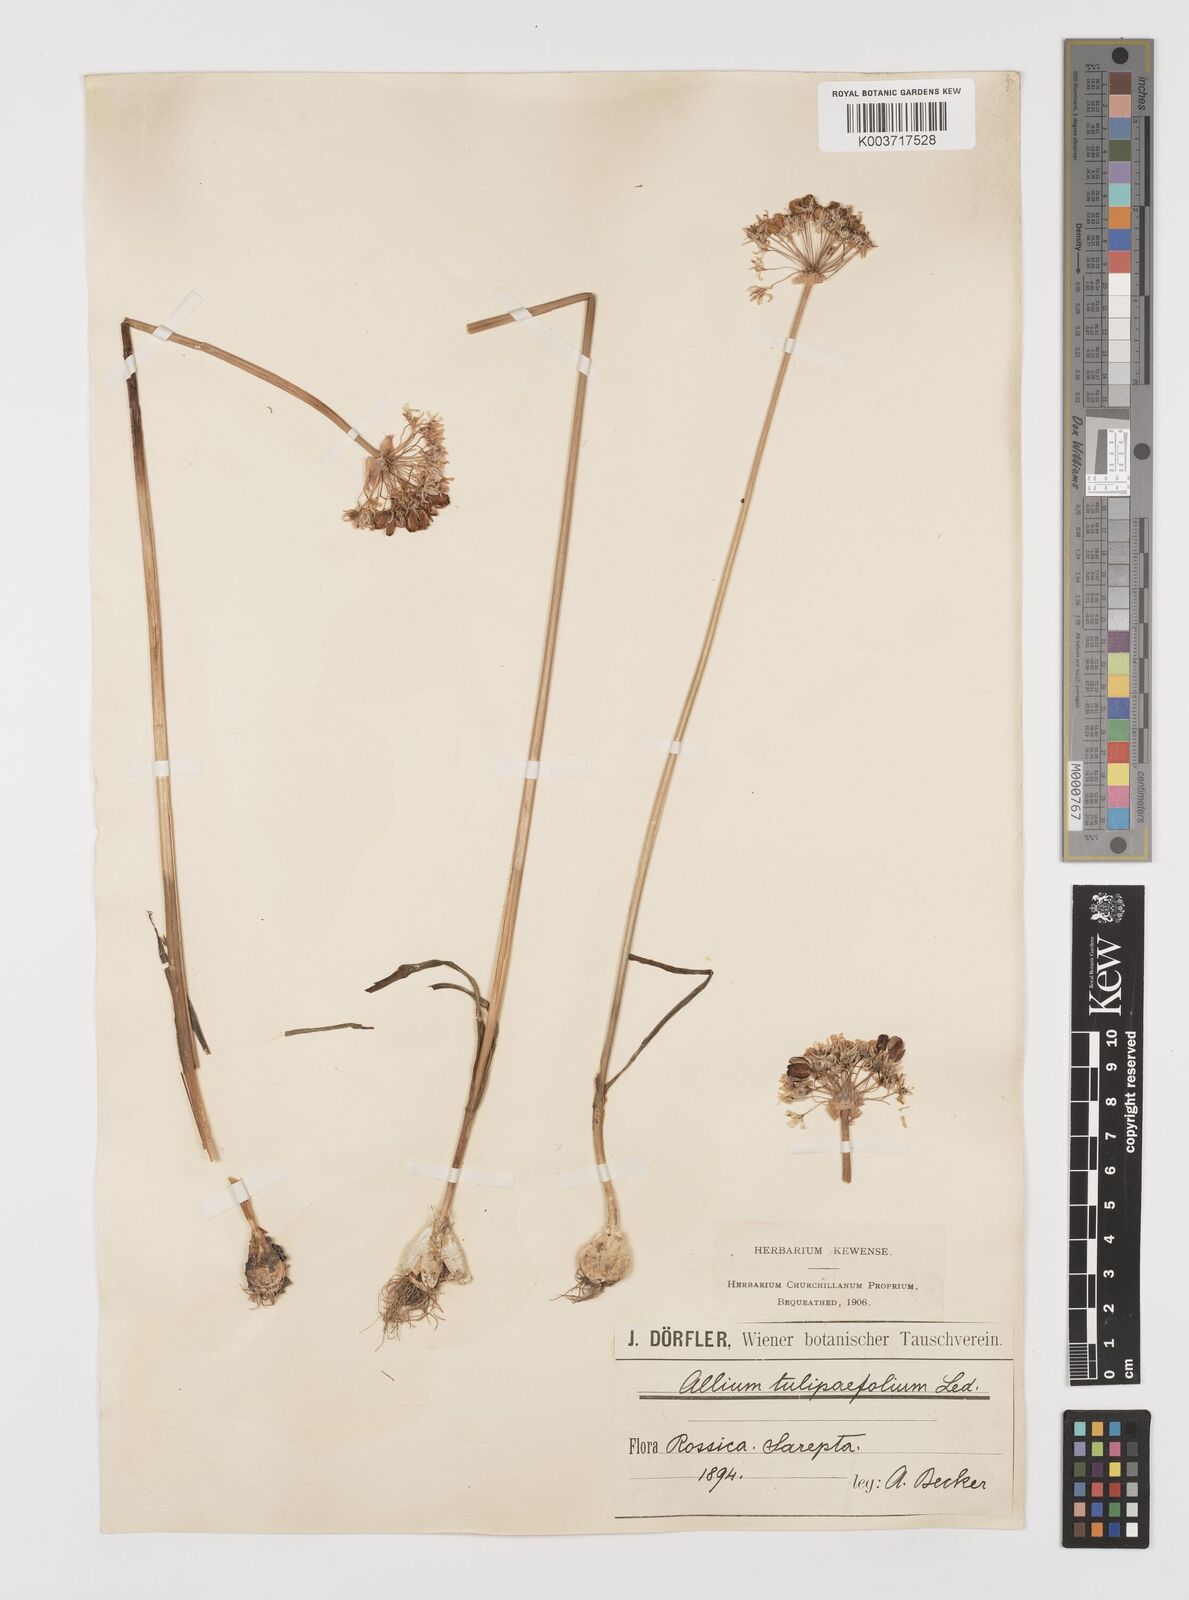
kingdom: Plantae
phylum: Tracheophyta
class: Liliopsida
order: Asparagales
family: Amaryllidaceae
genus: Allium
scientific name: Allium tulipifolium
